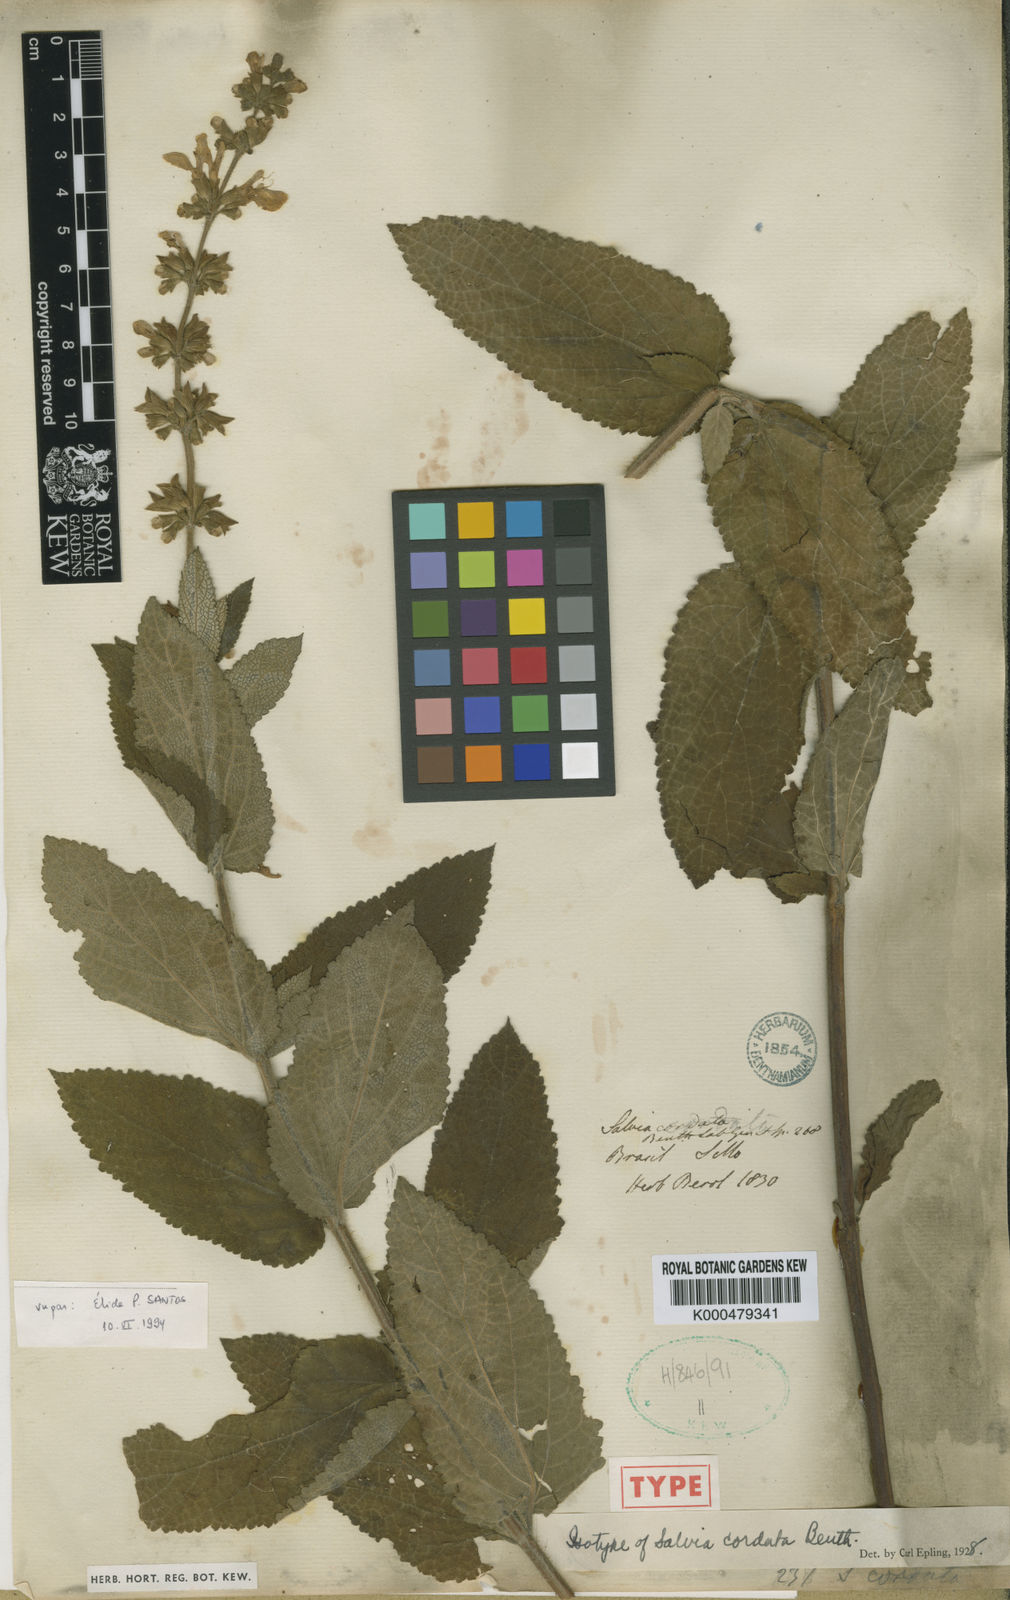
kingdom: Plantae
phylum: Tracheophyta
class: Magnoliopsida
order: Lamiales
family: Lamiaceae
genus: Salvia
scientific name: Salvia cordata
